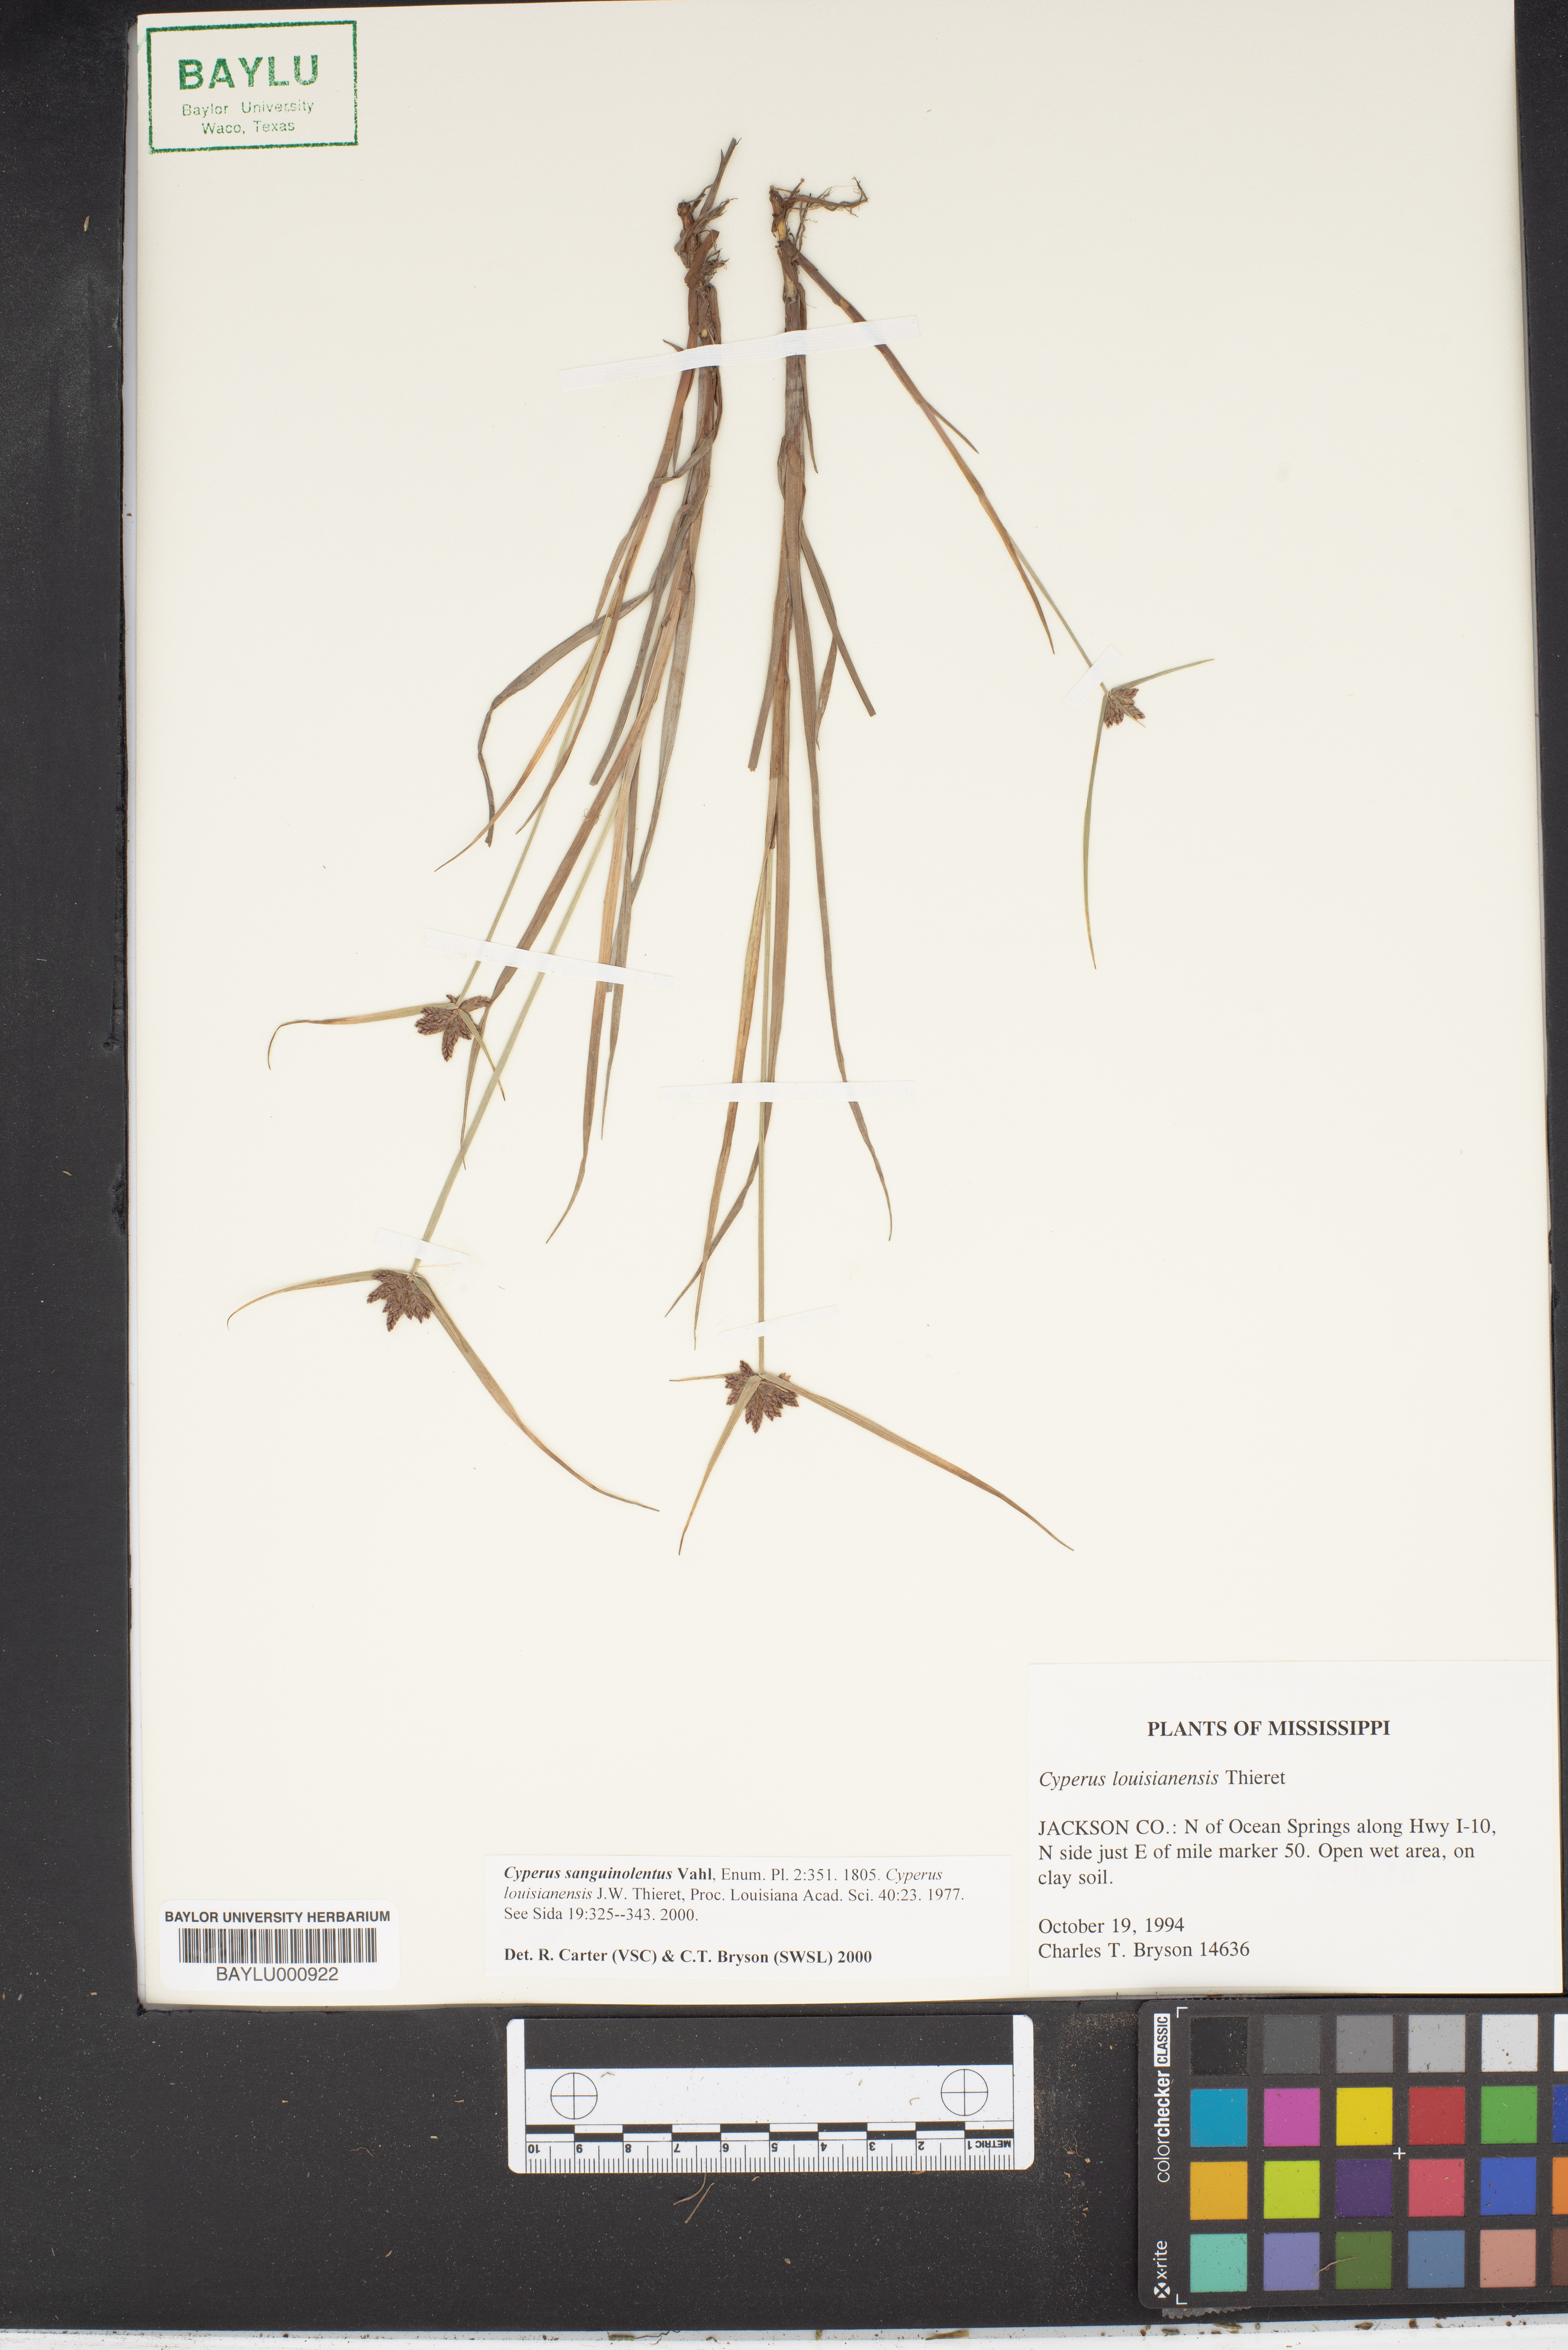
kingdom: Plantae
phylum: Tracheophyta
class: Liliopsida
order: Poales
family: Cyperaceae
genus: Cyperus
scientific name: Cyperus sanguinolentus
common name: Purpleglume flatsedge
